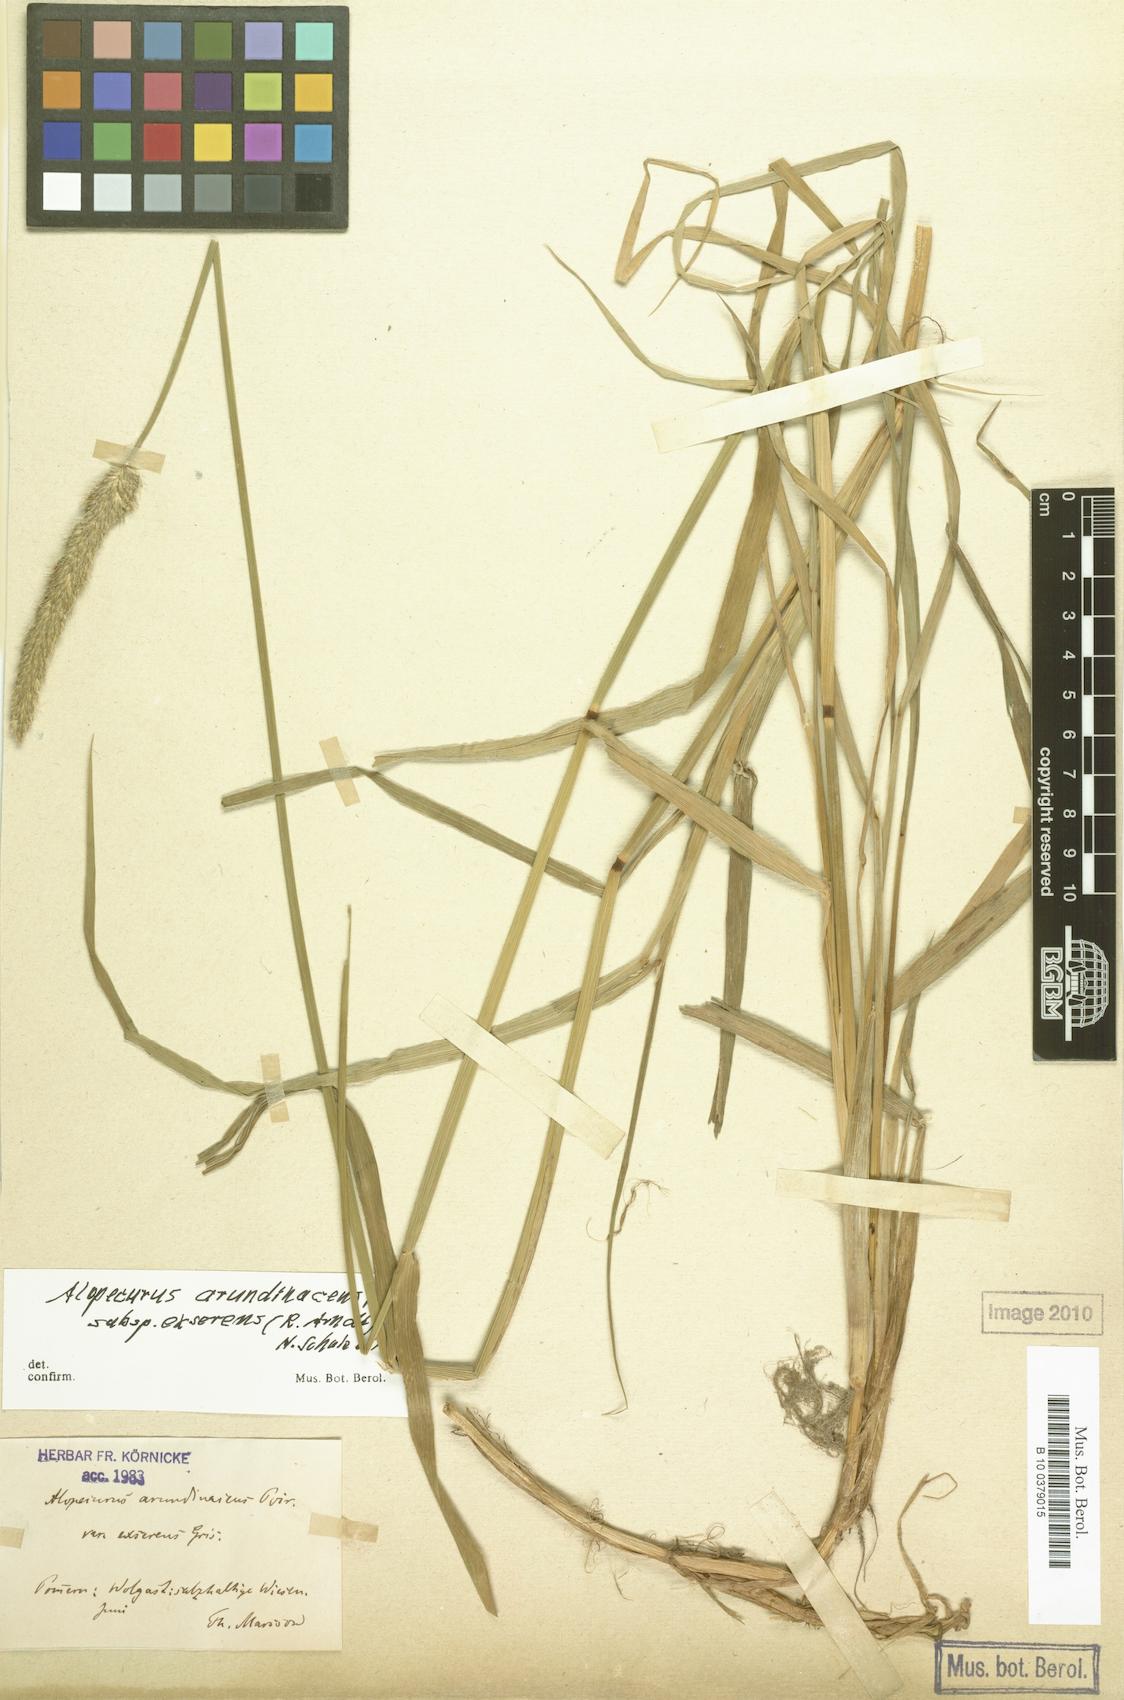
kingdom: Plantae
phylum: Tracheophyta
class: Liliopsida
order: Poales
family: Poaceae
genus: Alopecurus
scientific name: Alopecurus arundinaceus
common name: Creeping meadow foxtail
